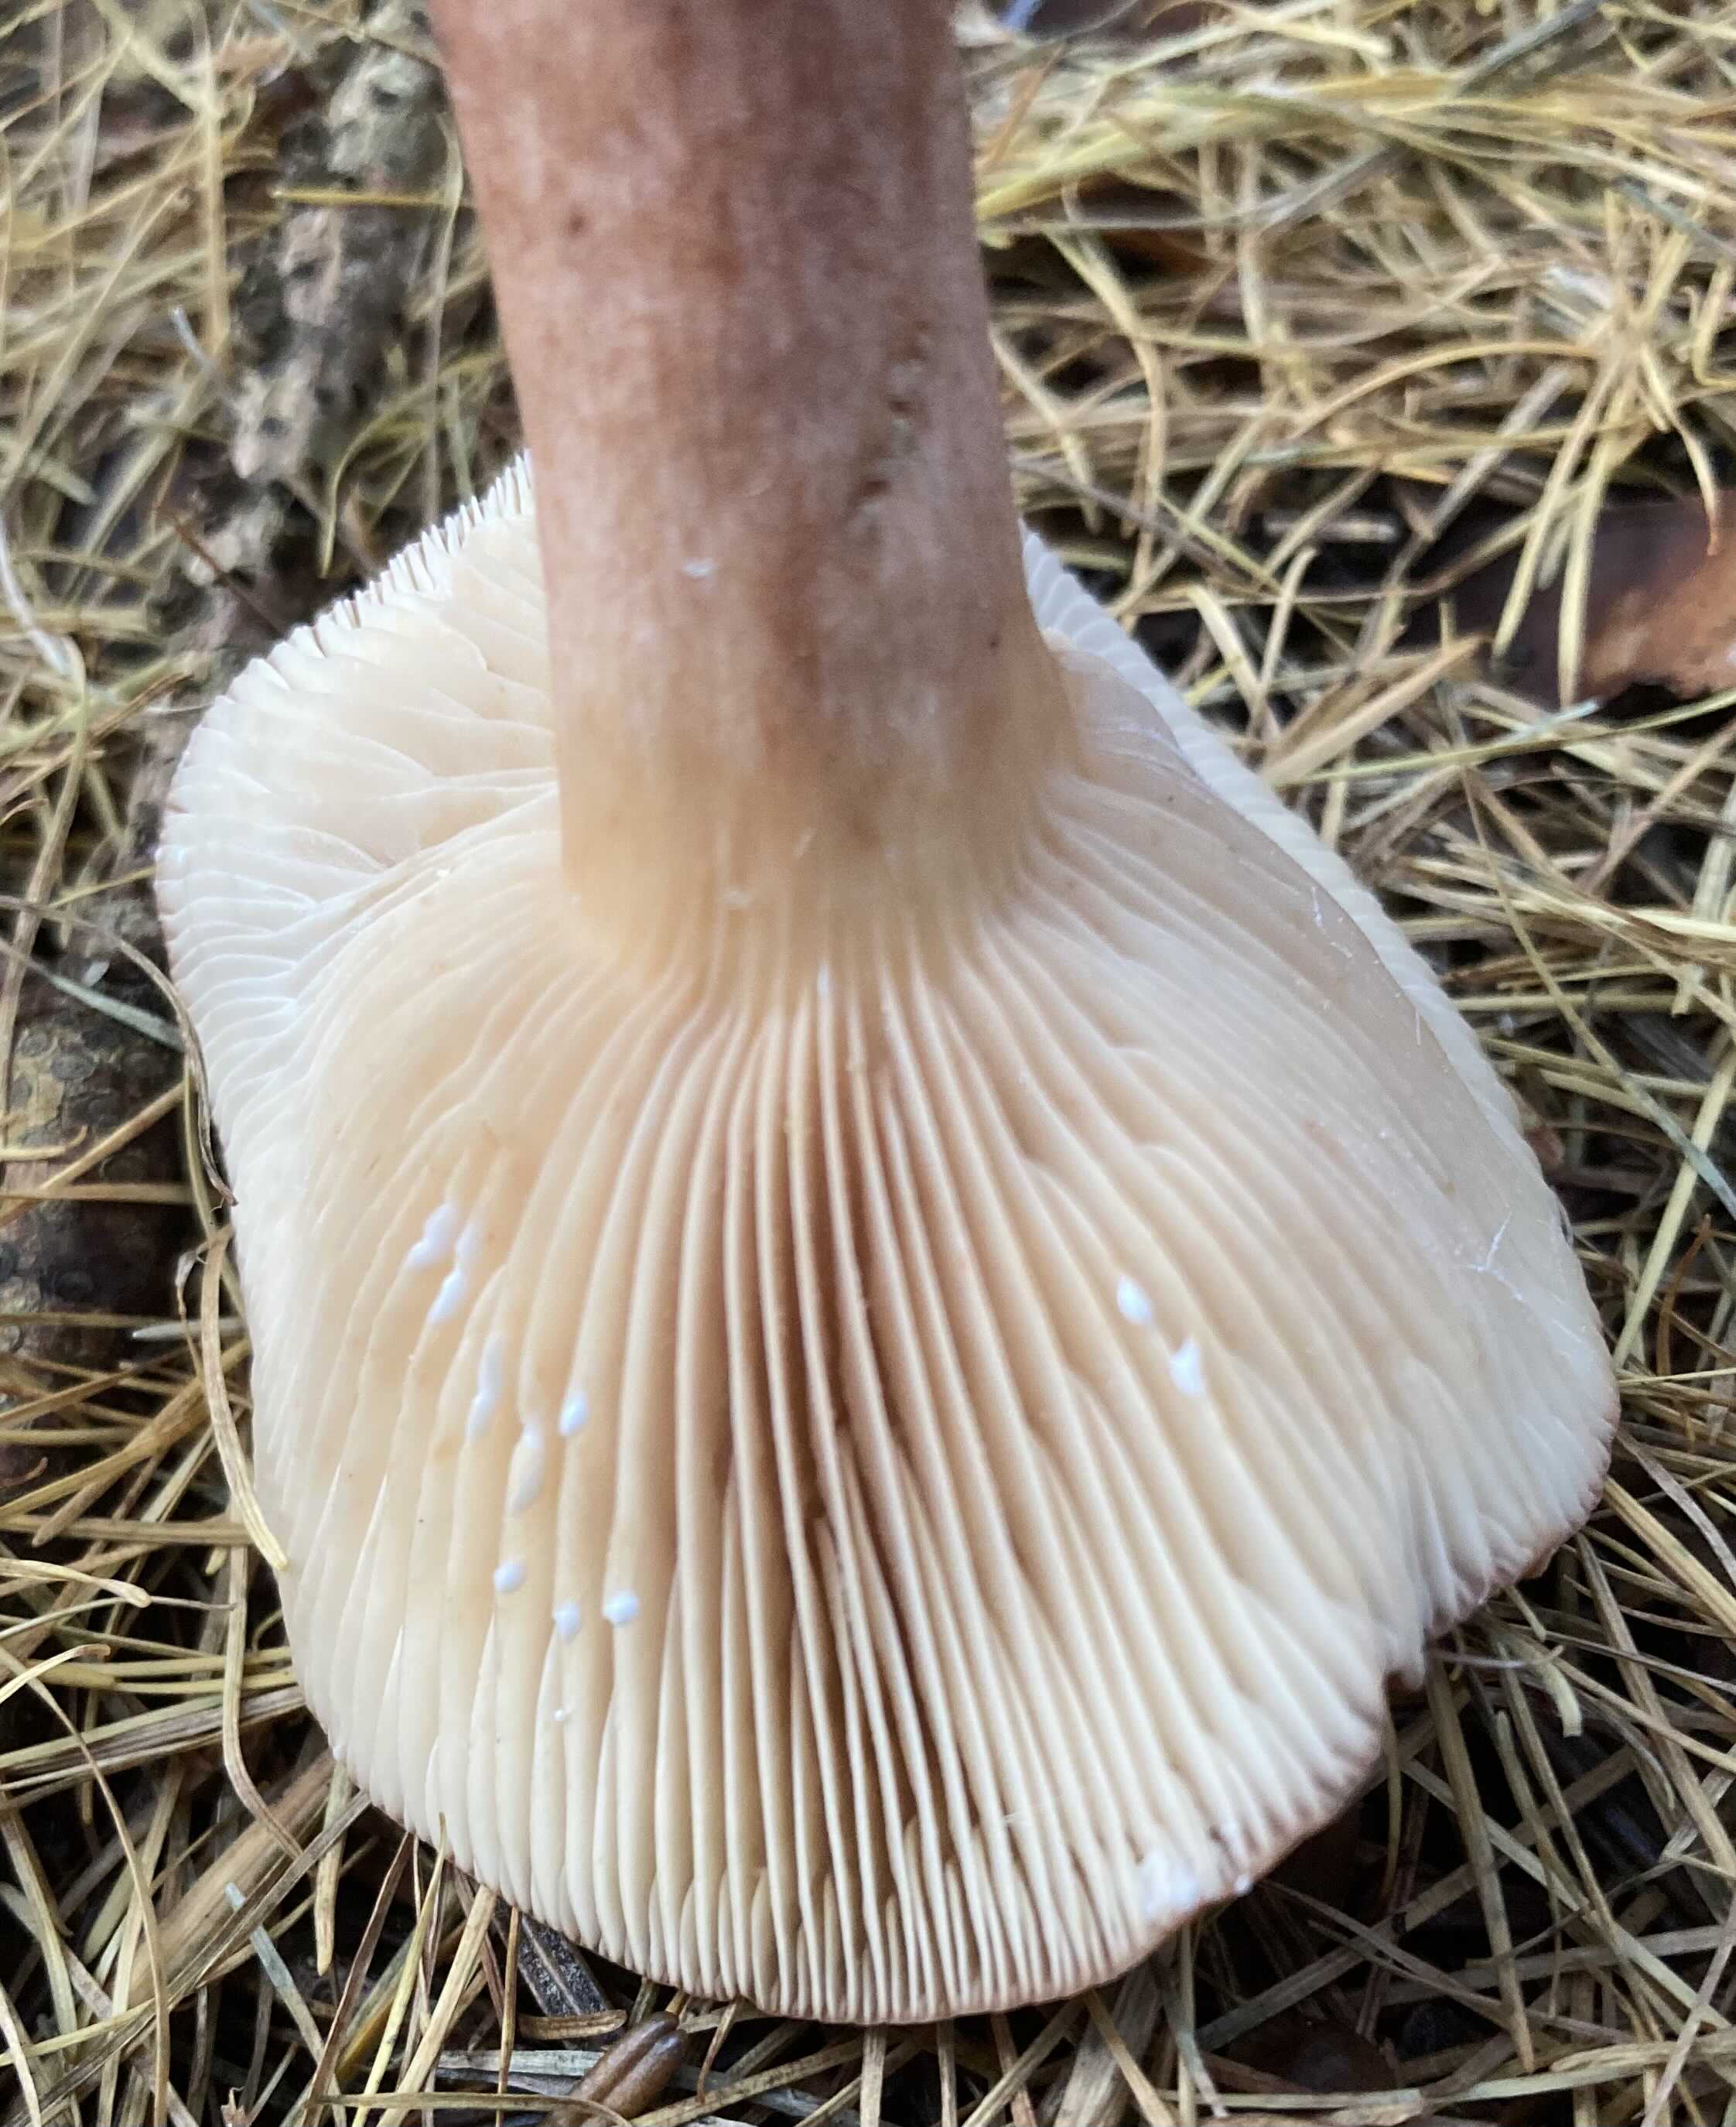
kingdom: Fungi
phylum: Basidiomycota
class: Agaricomycetes
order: Russulales
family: Russulaceae
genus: Lactarius
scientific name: Lactarius hepaticus
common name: leverbrun mælkehat
